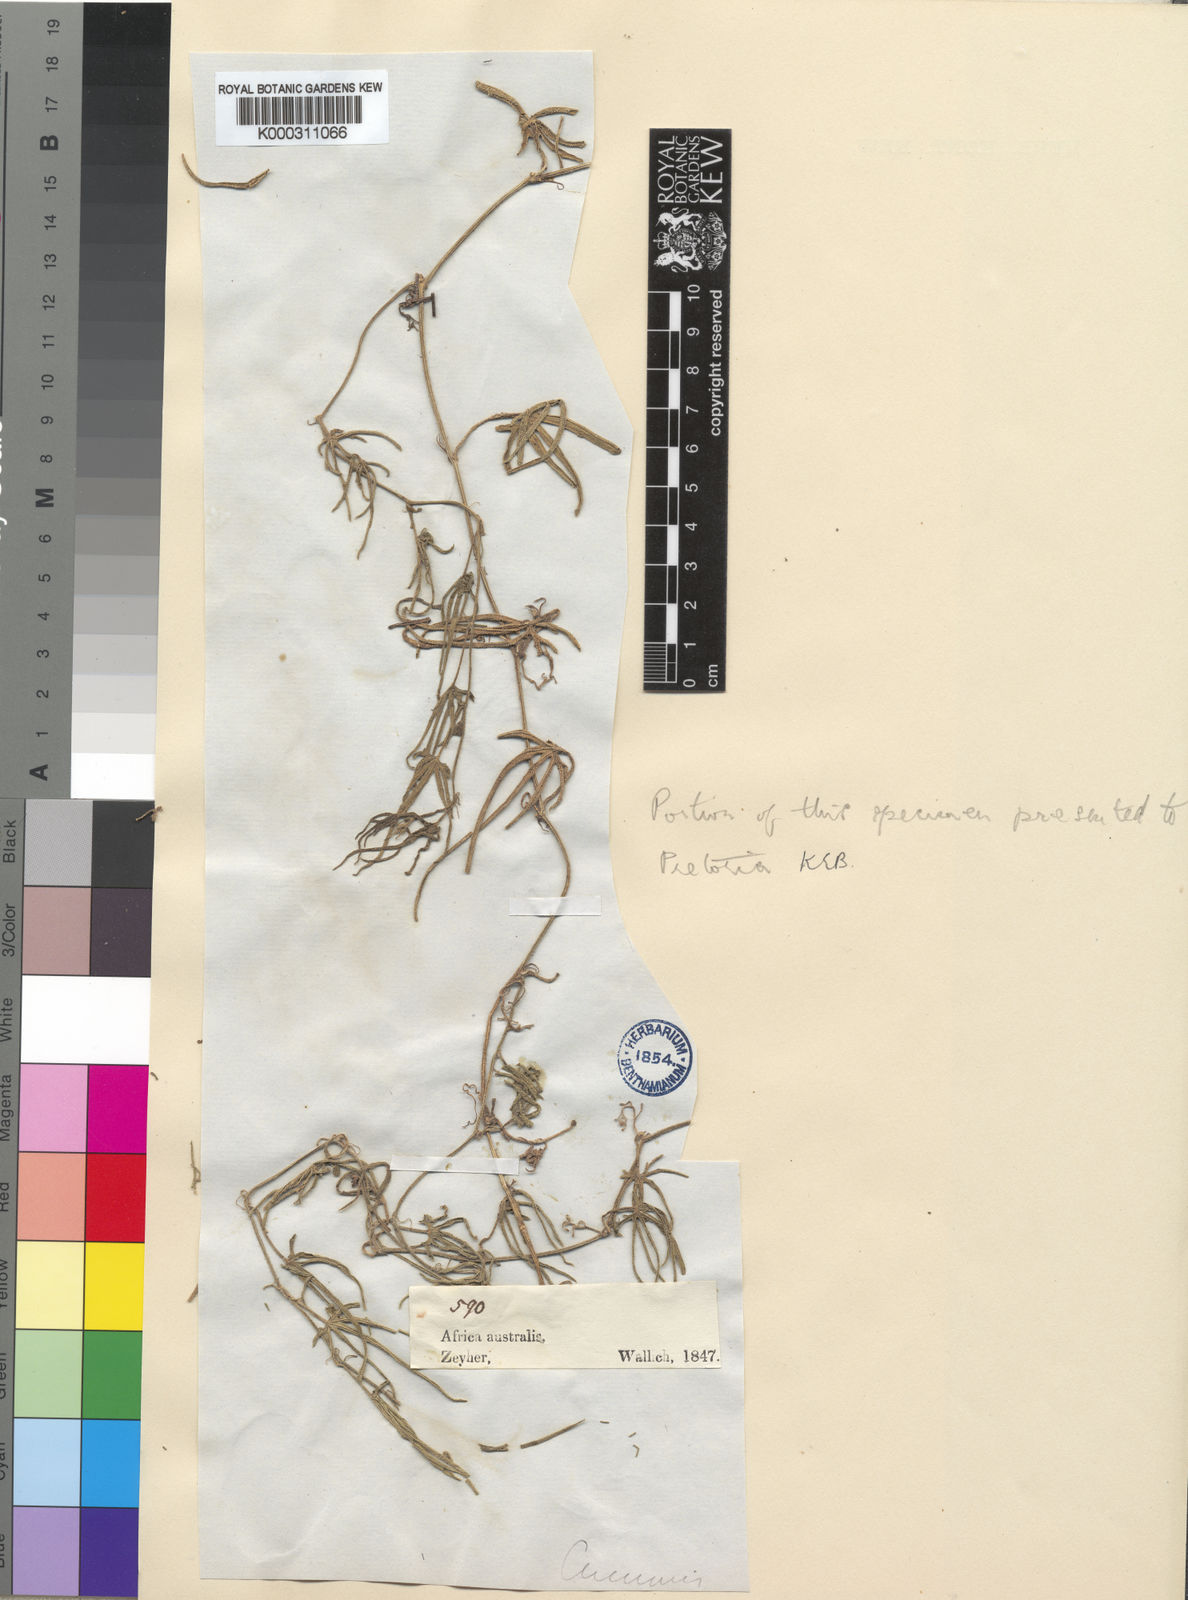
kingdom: Plantae
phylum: Tracheophyta
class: Magnoliopsida
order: Cucurbitales
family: Cucurbitaceae
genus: Cucumis
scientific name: Cucumis heptadactylus
